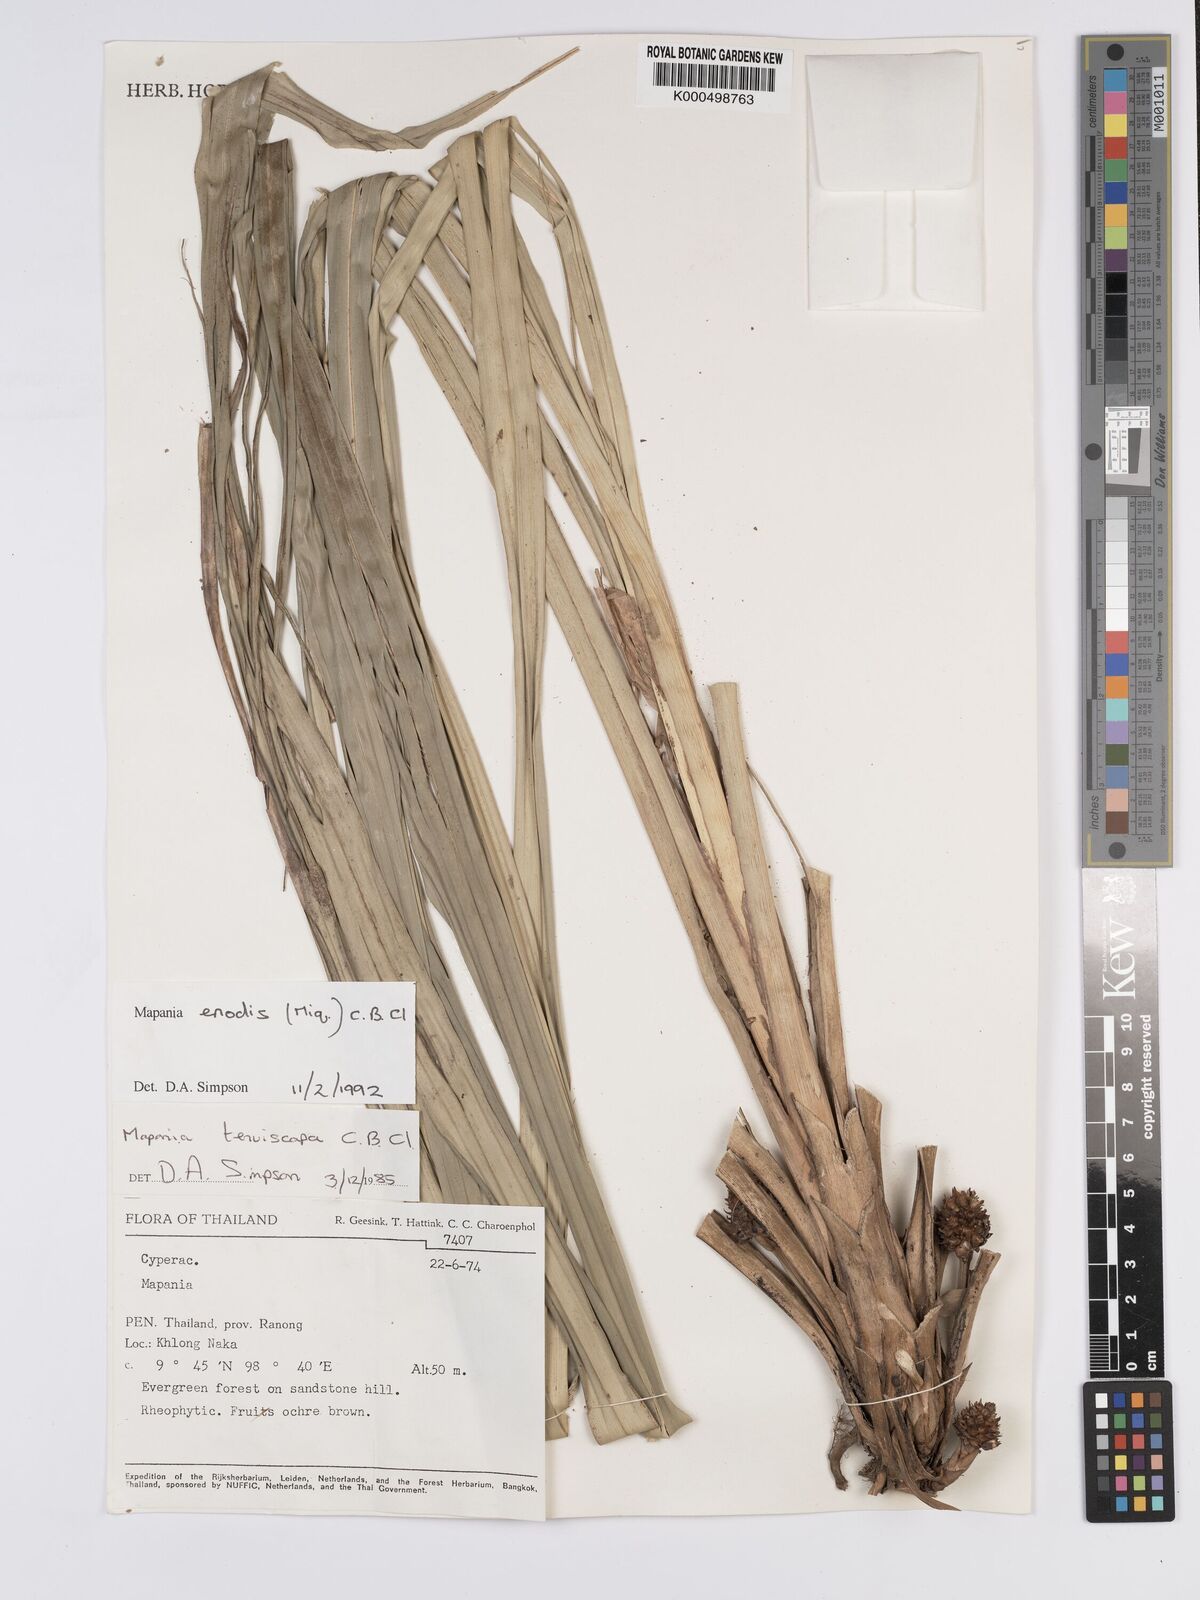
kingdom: Plantae
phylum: Tracheophyta
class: Liliopsida
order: Poales
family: Cyperaceae
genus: Mapania
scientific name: Mapania enodis
